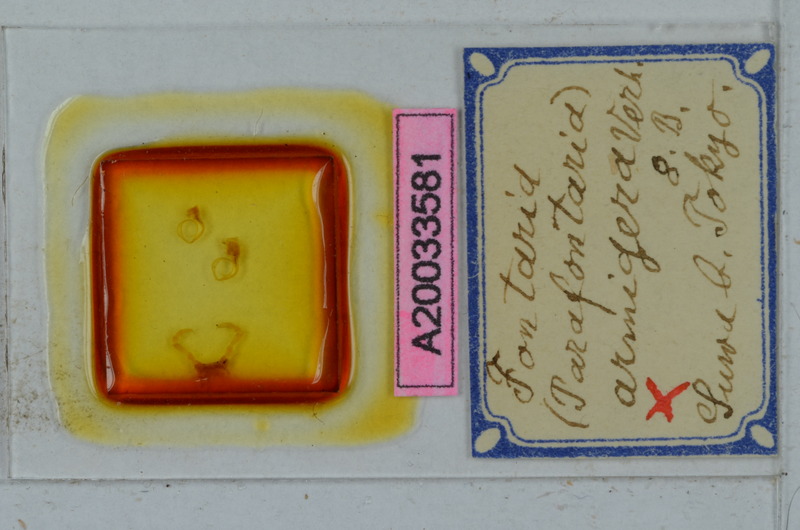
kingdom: Animalia
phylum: Arthropoda
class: Diplopoda
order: Polydesmida
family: Xystodesmidae
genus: Parafontaria
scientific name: Parafontaria laminata
